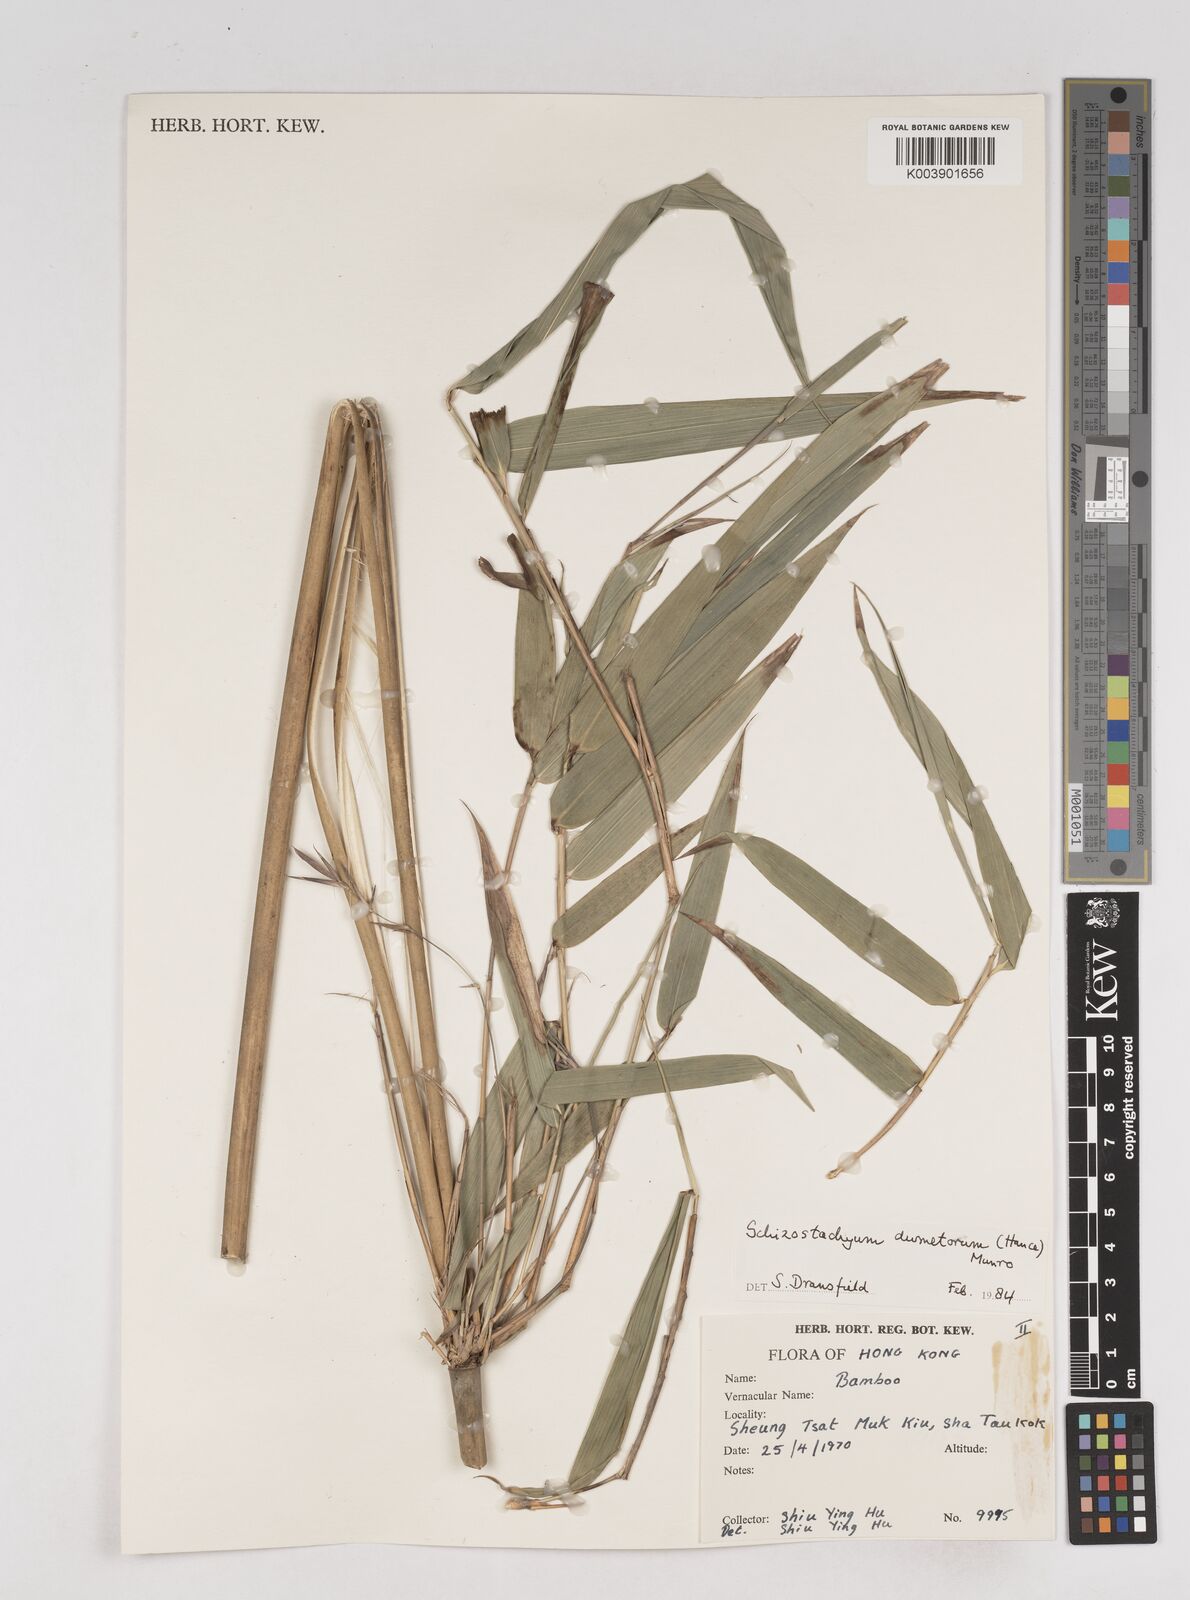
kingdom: Plantae
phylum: Tracheophyta
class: Liliopsida
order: Poales
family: Poaceae
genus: Schizostachyum
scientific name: Schizostachyum dumetorum
